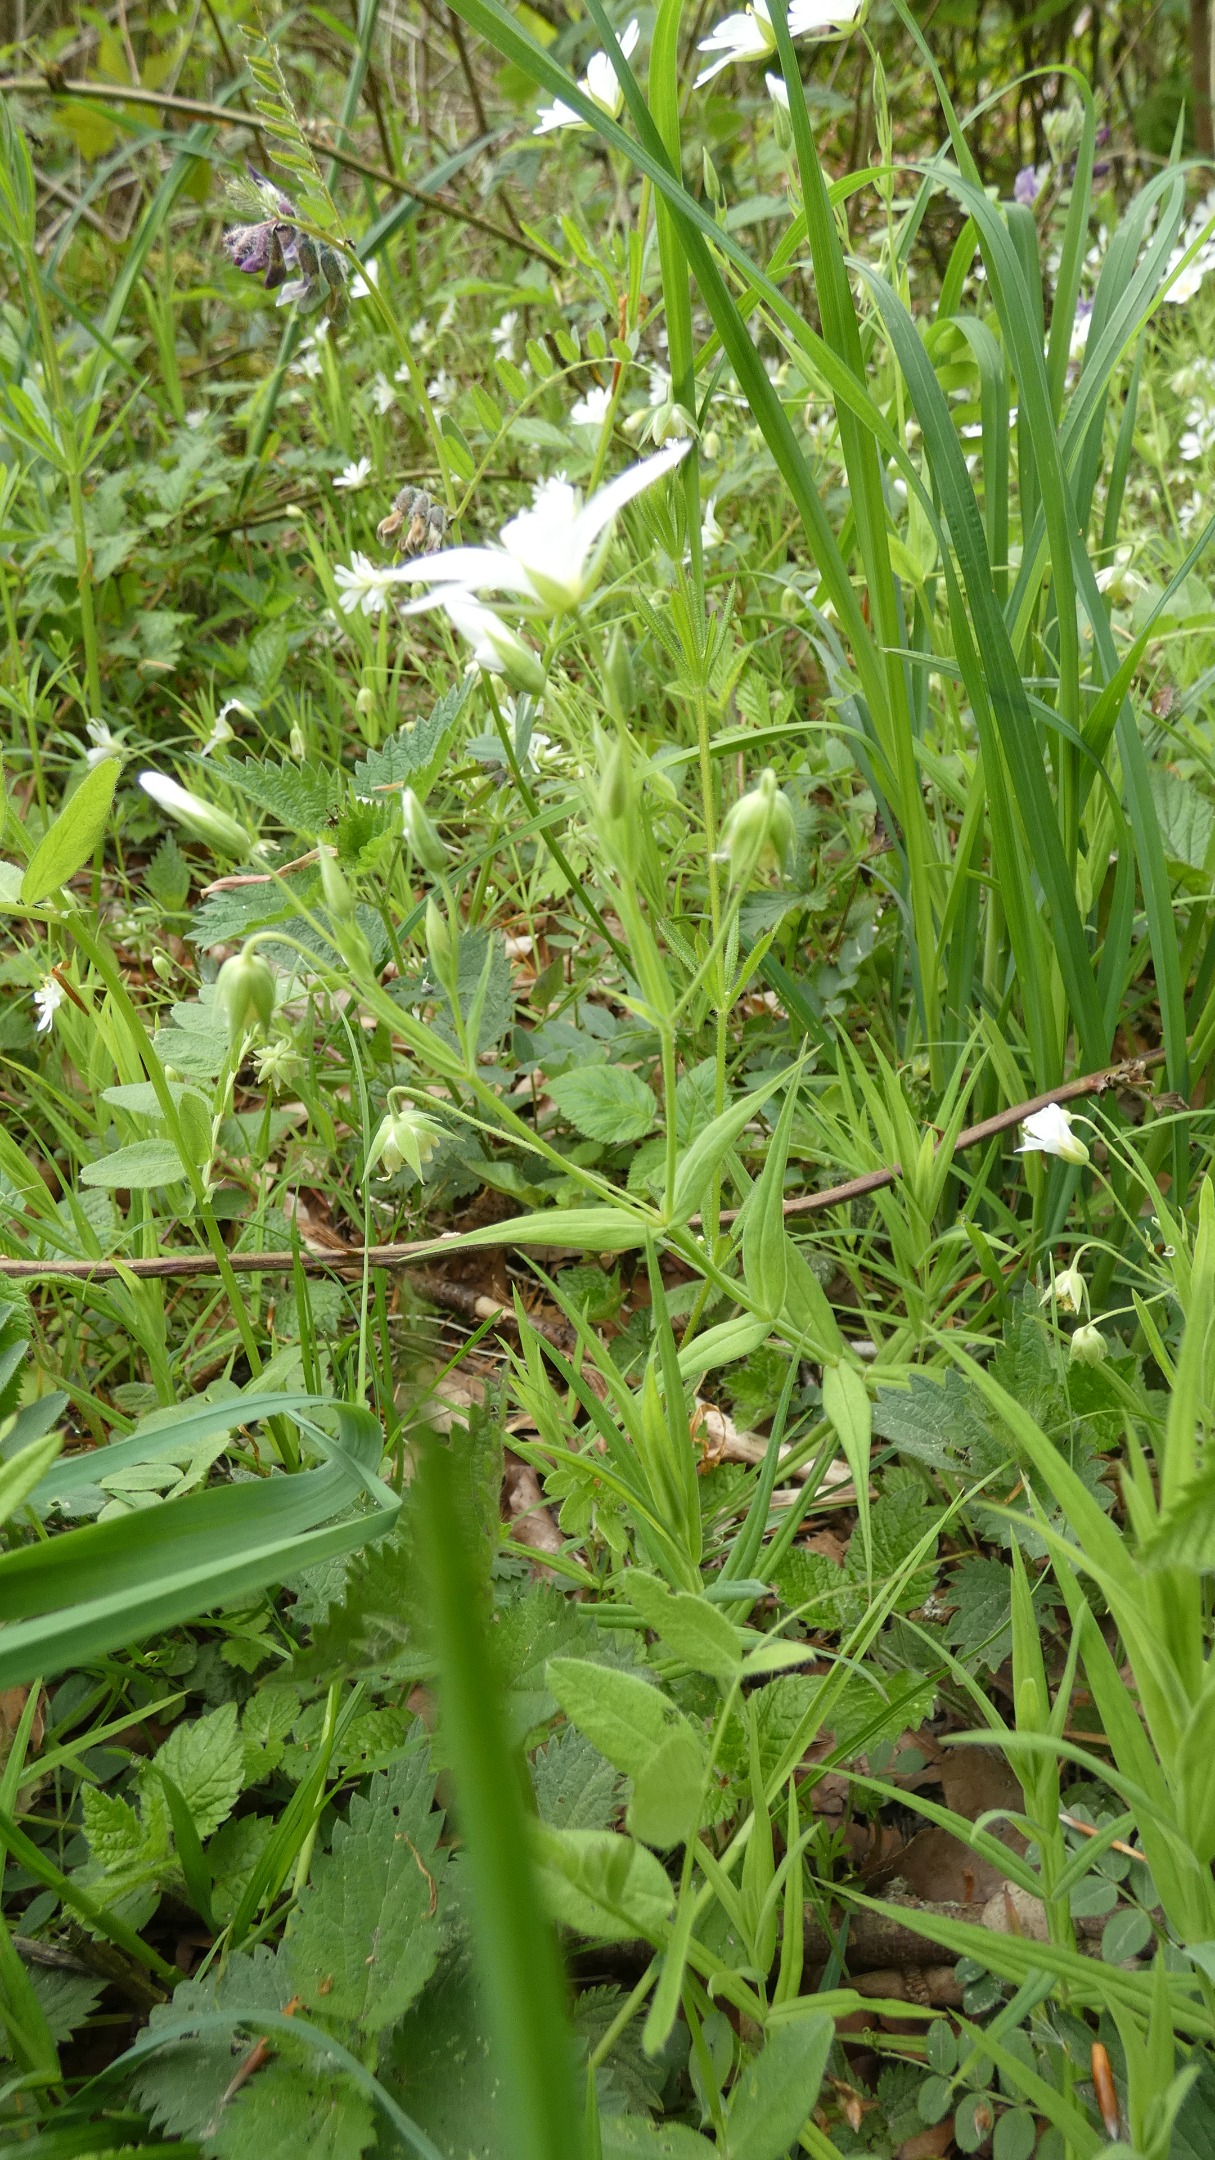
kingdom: Plantae
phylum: Tracheophyta
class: Magnoliopsida
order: Caryophyllales
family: Caryophyllaceae
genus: Rabelera
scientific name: Rabelera holostea
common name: Stor fladstjerne
